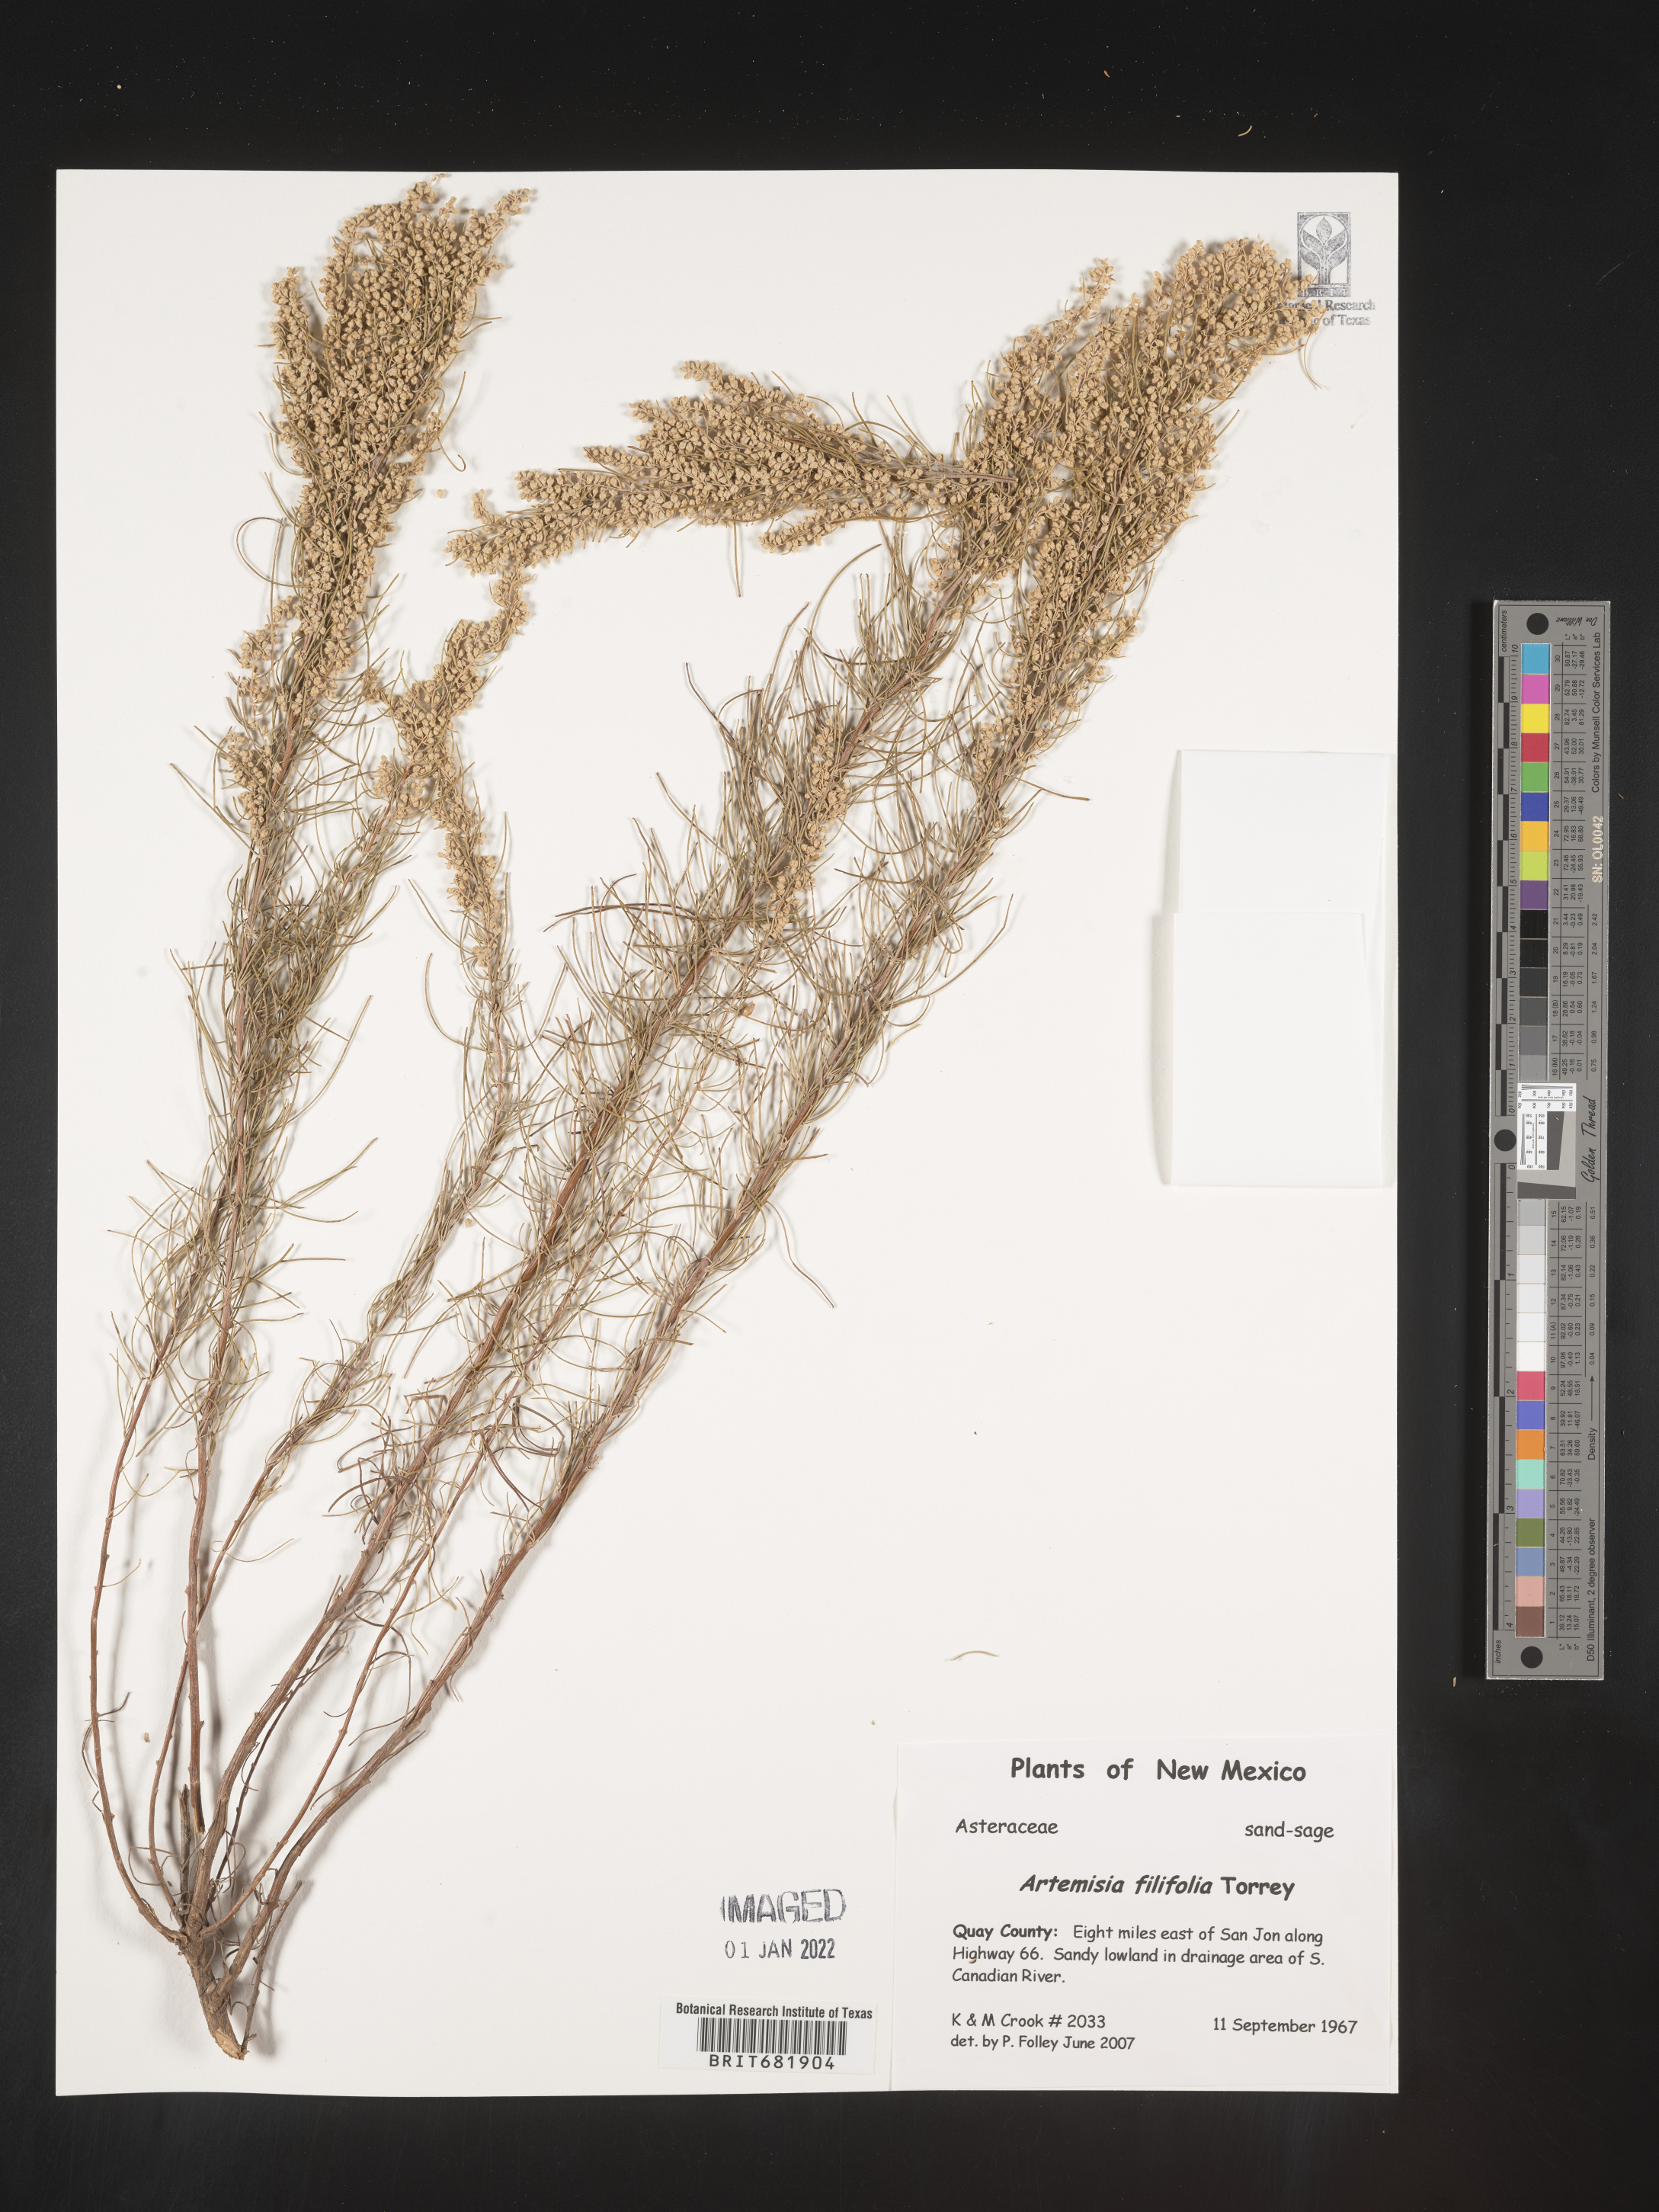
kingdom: Plantae
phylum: Tracheophyta
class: Magnoliopsida
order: Asterales
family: Asteraceae
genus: Artemisia
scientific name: Artemisia filifolia
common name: Sand-sage
